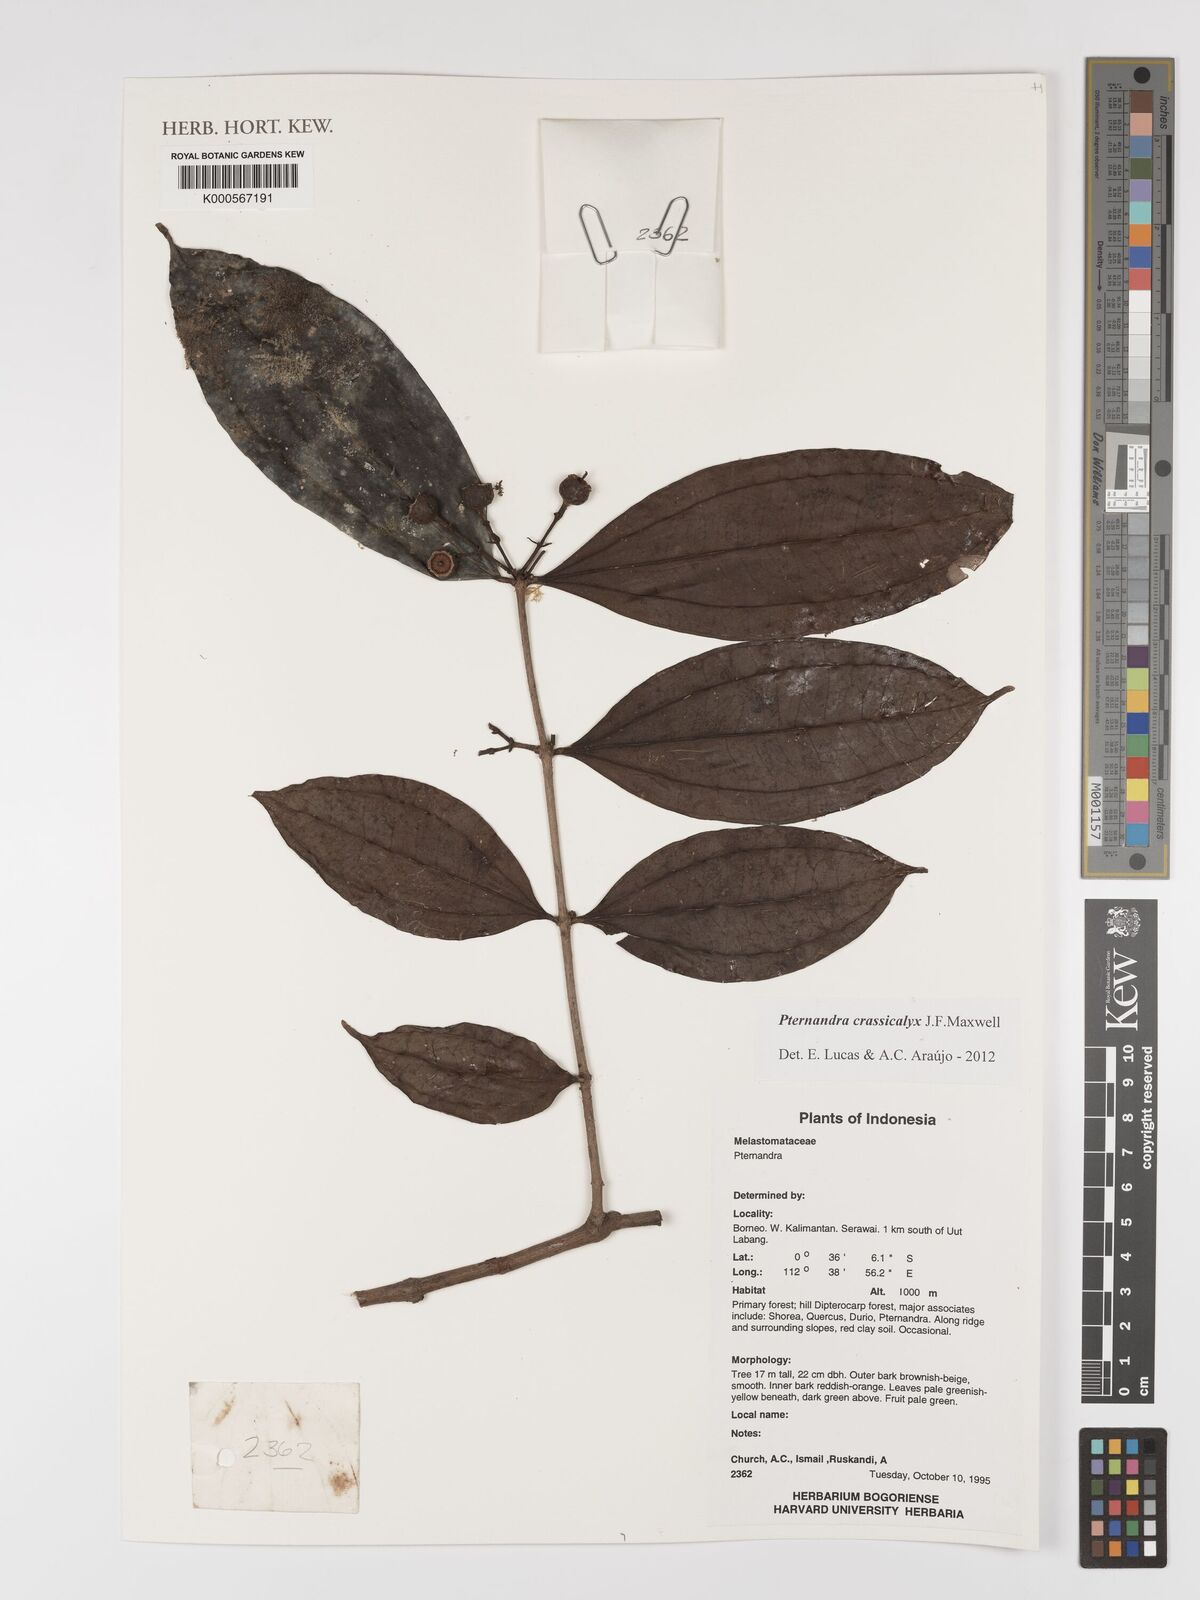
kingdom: Plantae
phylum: Tracheophyta
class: Magnoliopsida
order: Myrtales
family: Melastomataceae
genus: Pternandra
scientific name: Pternandra crassicalyx
